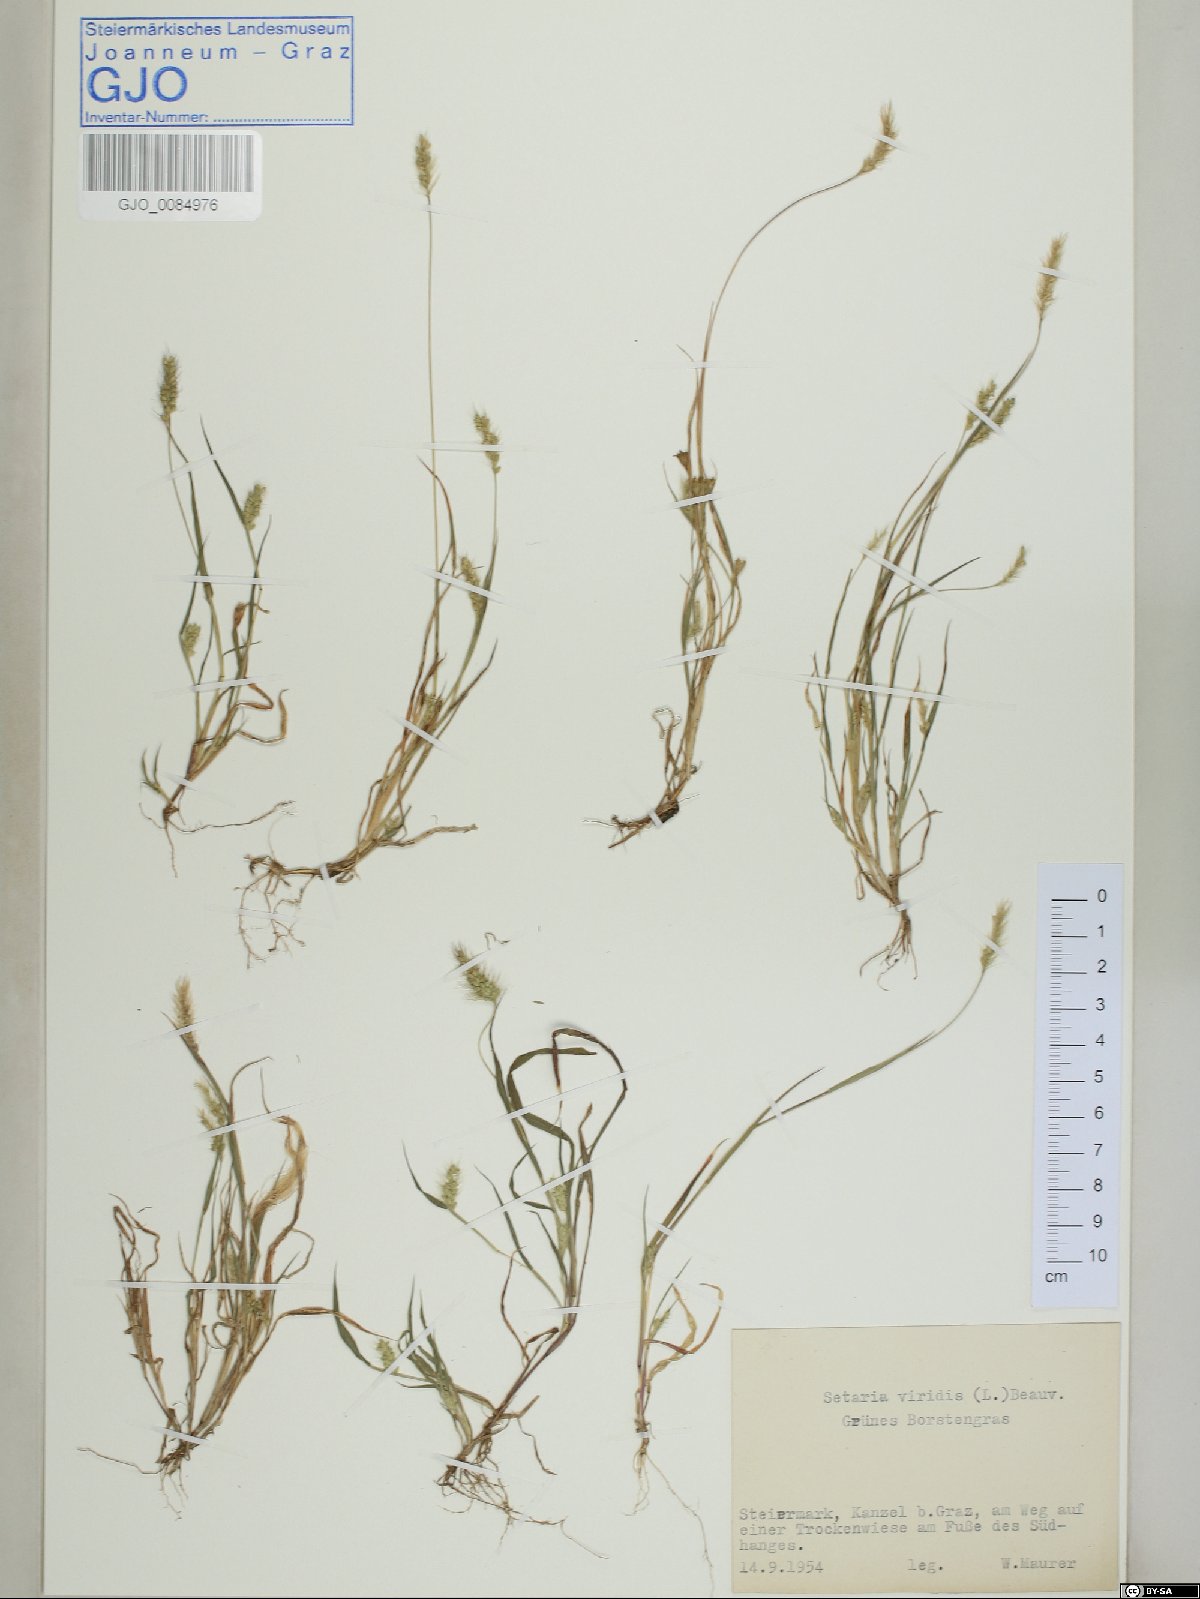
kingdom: Plantae
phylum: Tracheophyta
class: Liliopsida
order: Poales
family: Poaceae
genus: Setaria
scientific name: Setaria viridis
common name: Green bristlegrass
